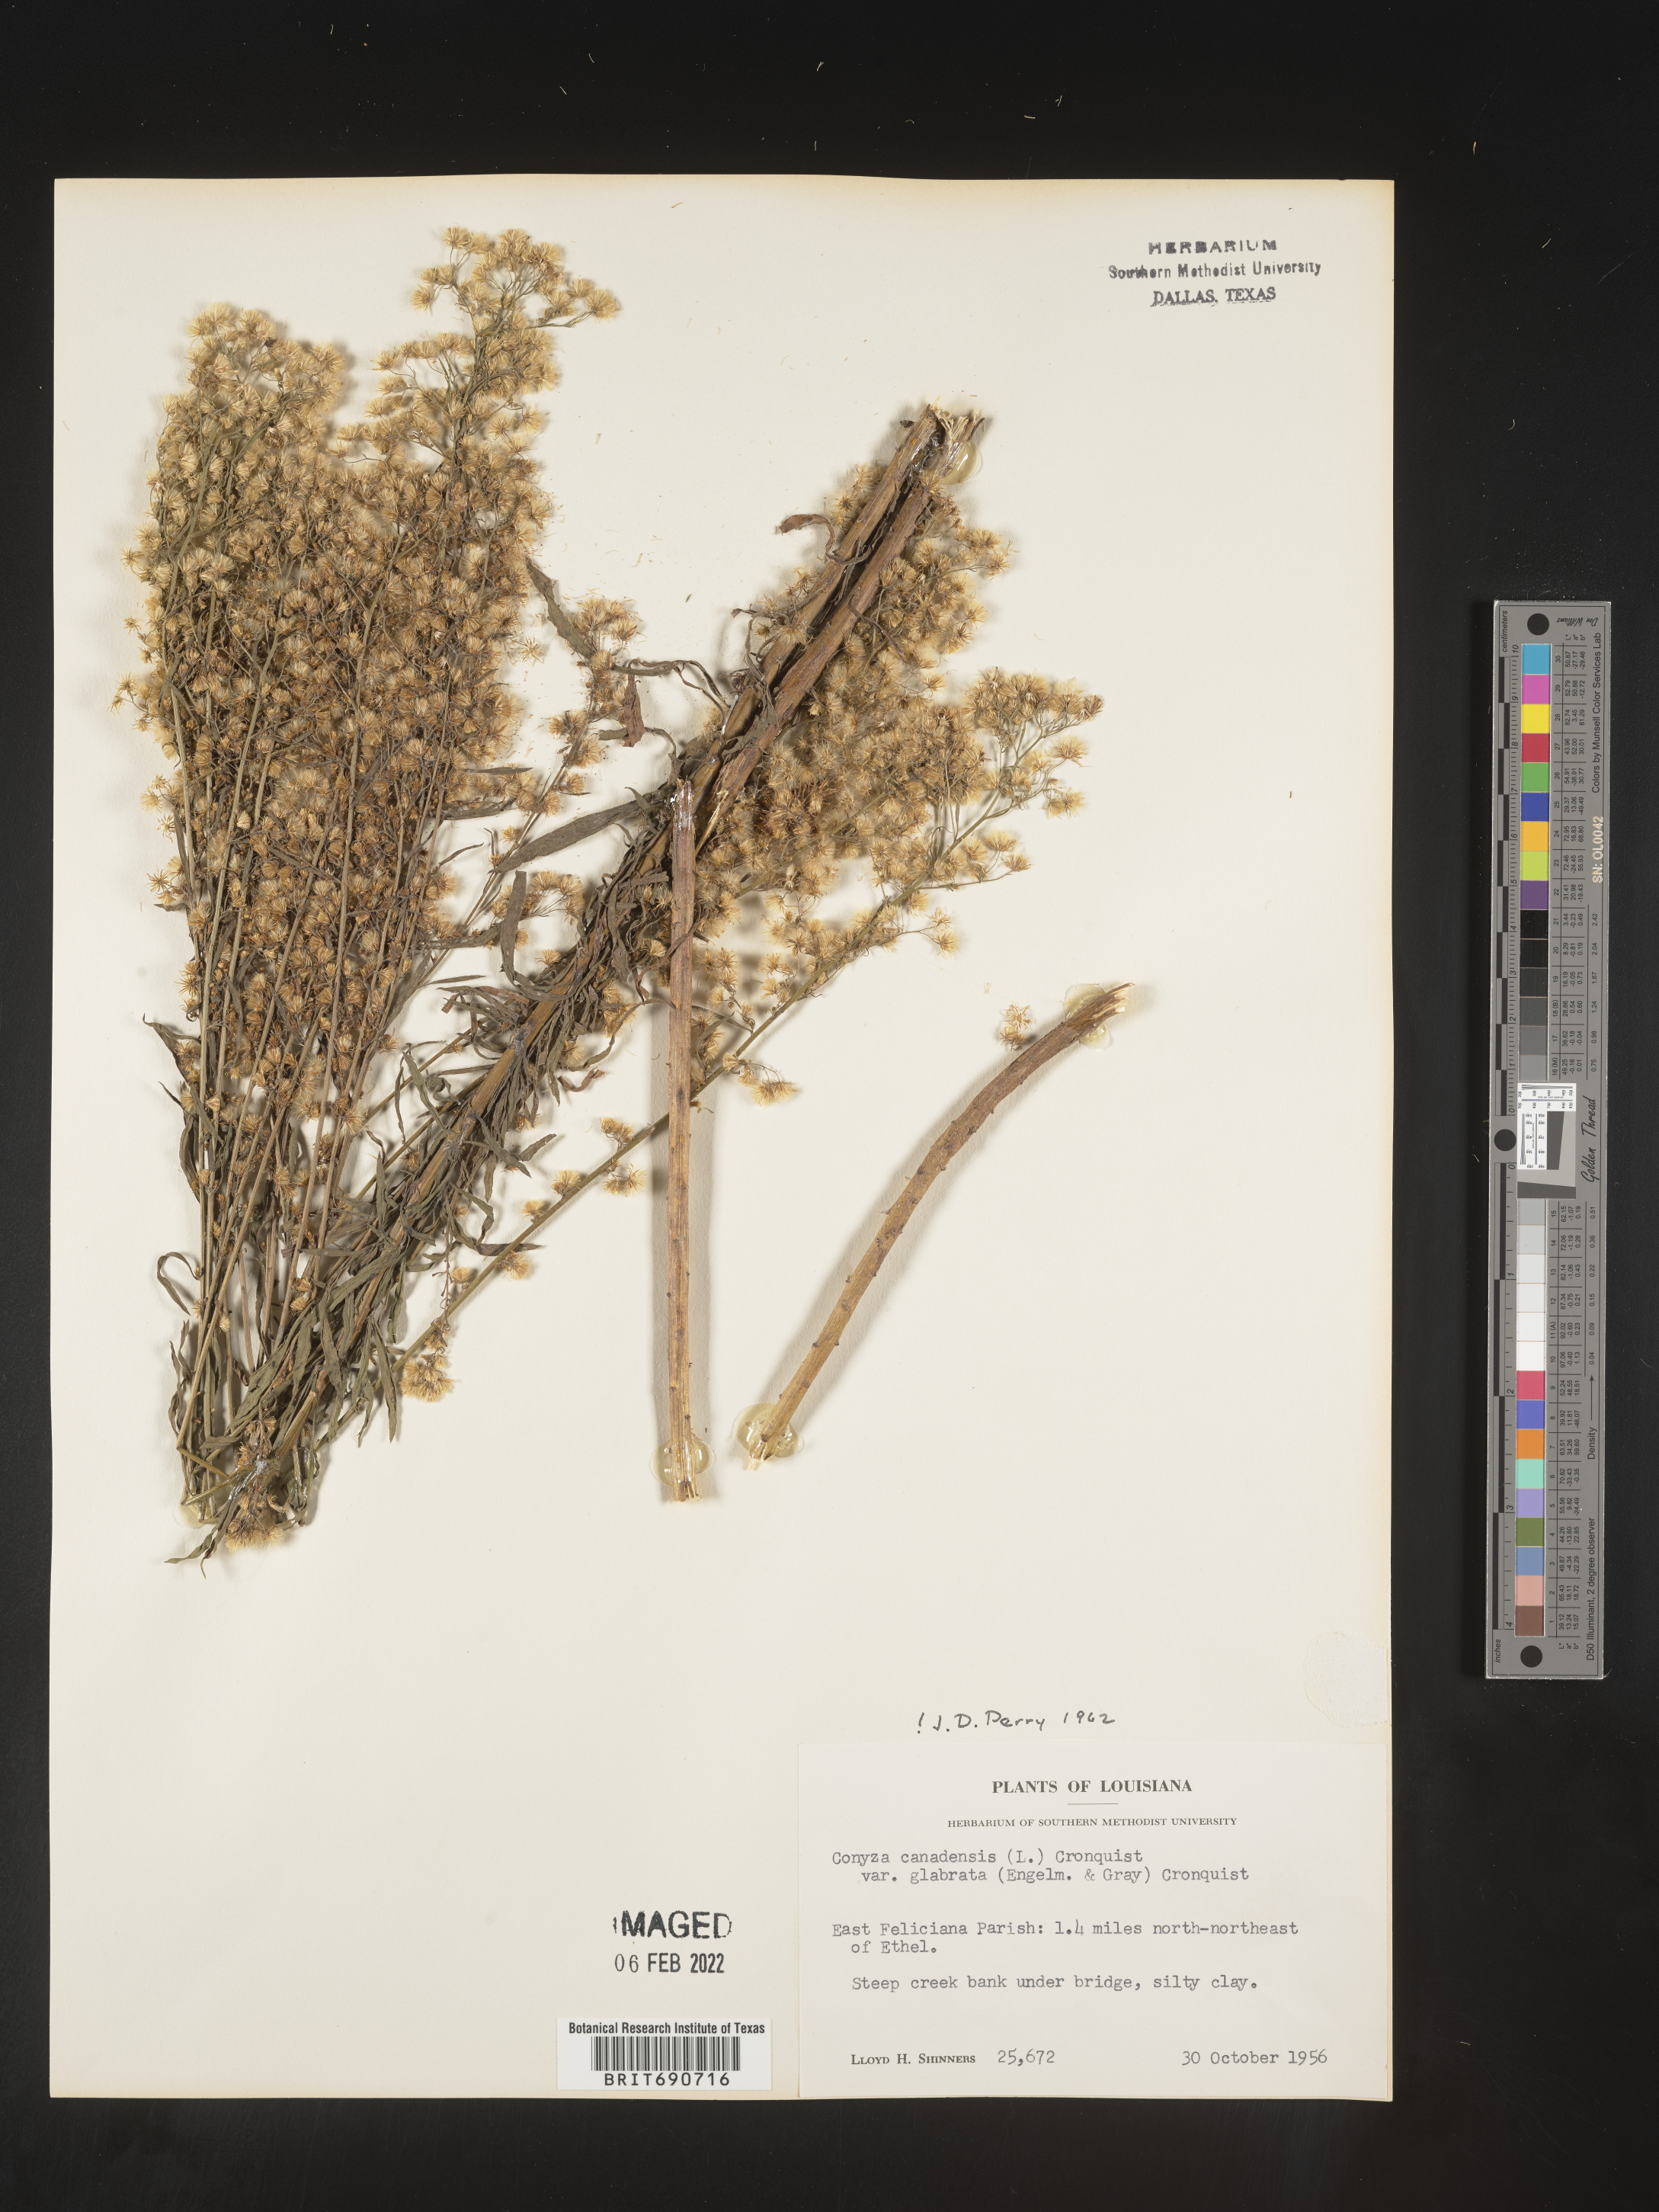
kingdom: Plantae
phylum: Tracheophyta
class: Magnoliopsida
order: Asterales
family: Asteraceae
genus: Erigeron
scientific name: Erigeron canadensis
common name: Canadian fleabane
